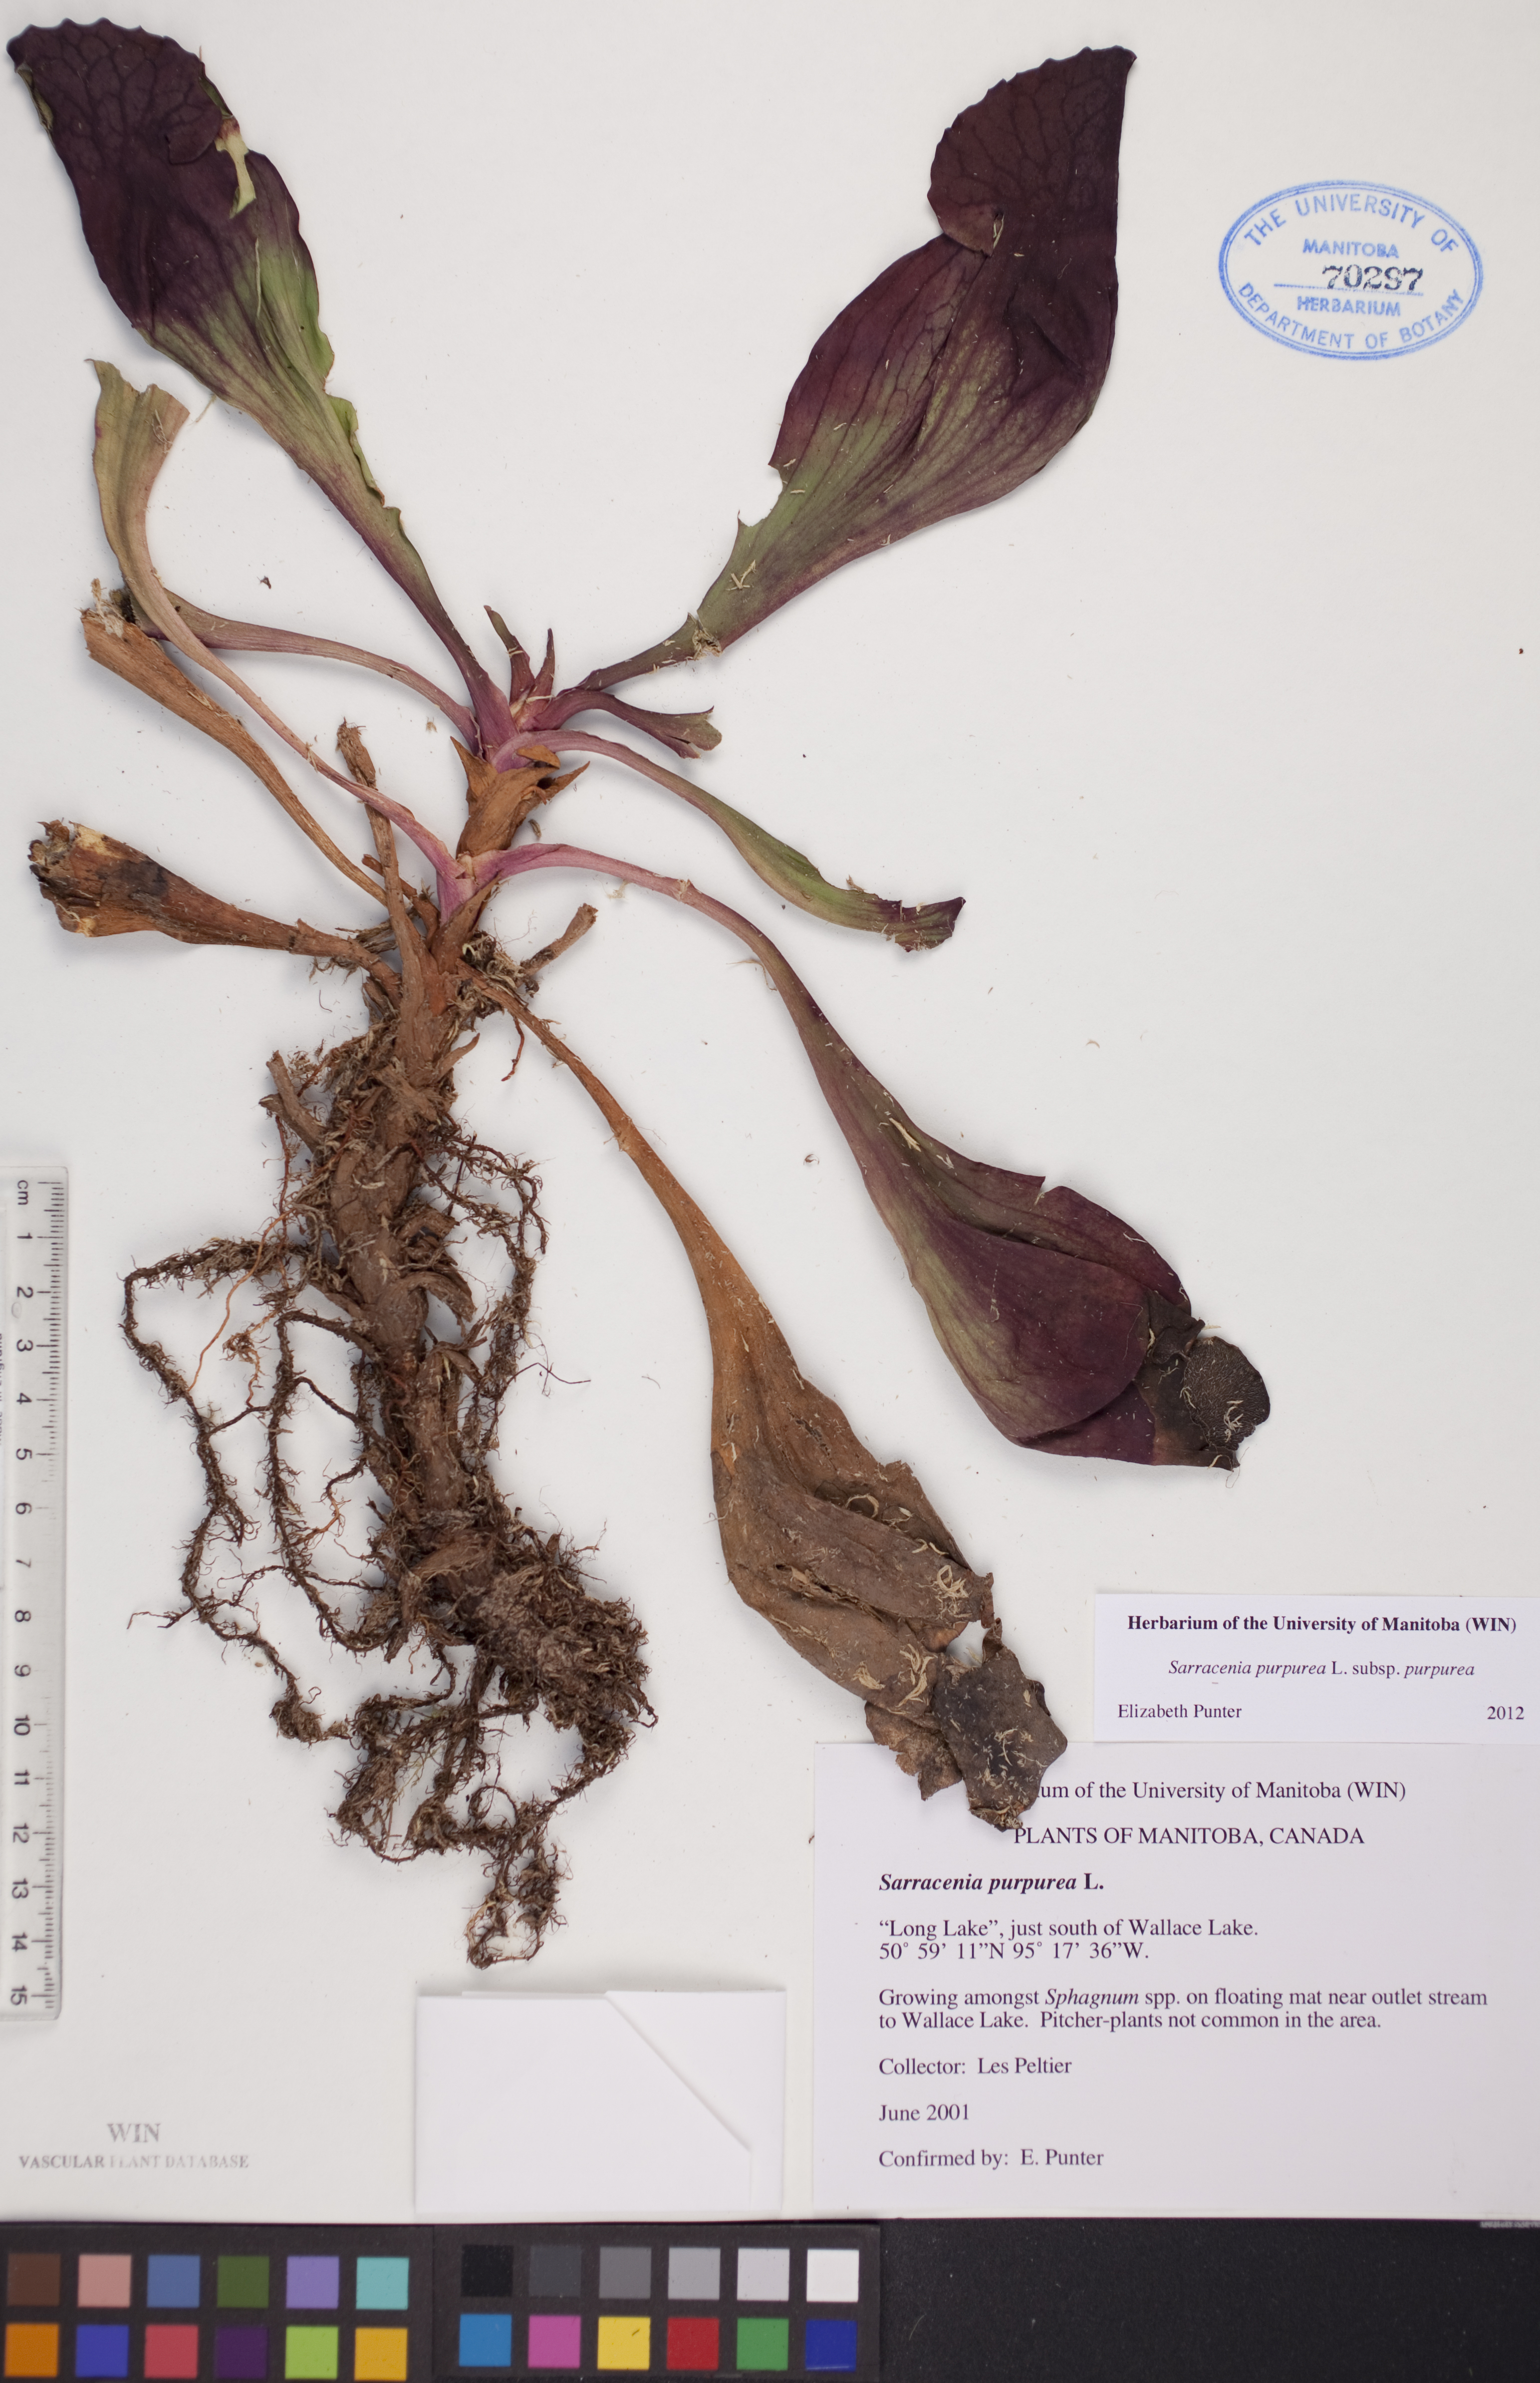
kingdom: Plantae
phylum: Tracheophyta
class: Magnoliopsida
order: Ericales
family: Sarraceniaceae
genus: Sarracenia
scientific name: Sarracenia purpurea
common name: Pitcherplant
